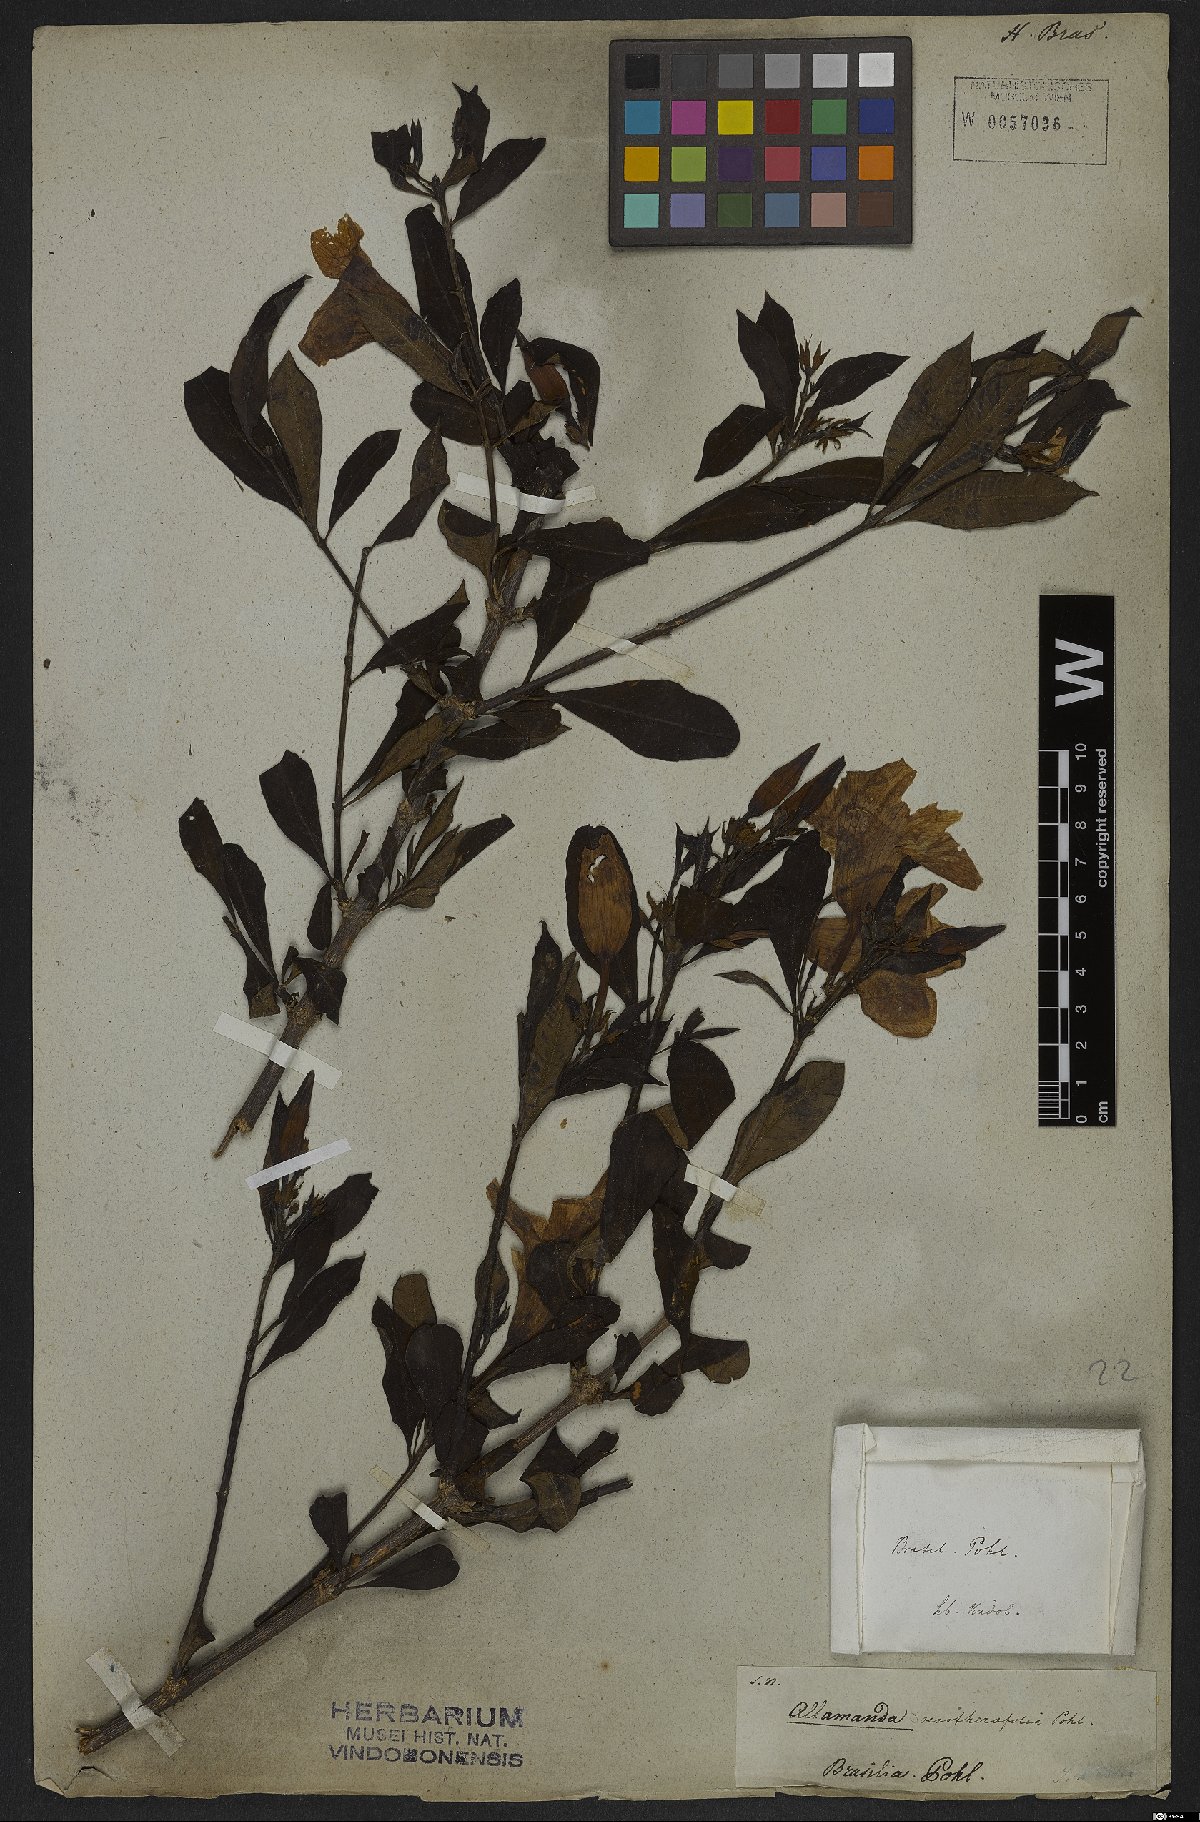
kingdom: Plantae
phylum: Tracheophyta
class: Magnoliopsida
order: Gentianales
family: Apocynaceae
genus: Allamanda
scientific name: Allamanda oenotherifolia
